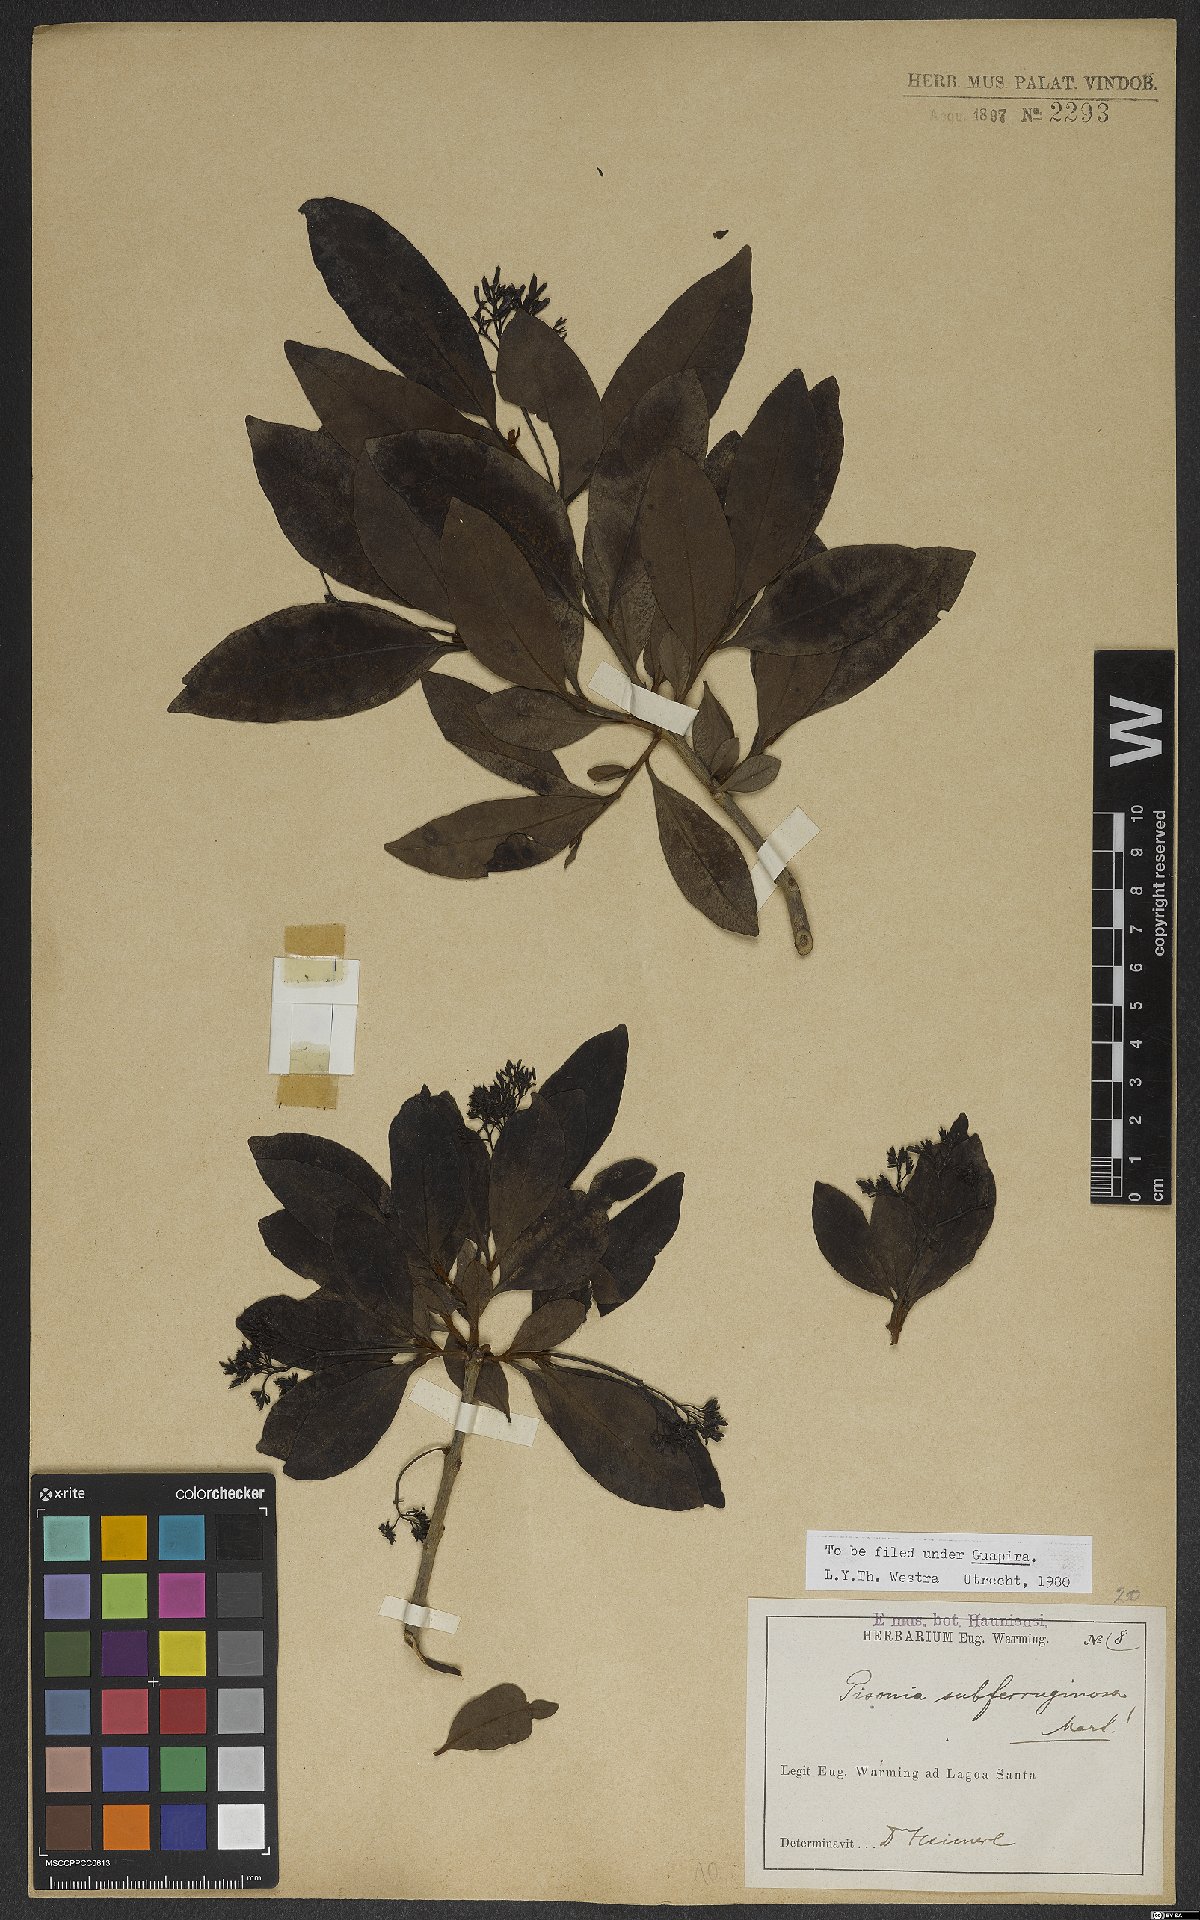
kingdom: Plantae
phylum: Tracheophyta
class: Magnoliopsida
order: Caryophyllales
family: Nyctaginaceae
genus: Guapira
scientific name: Guapira graciliflora
